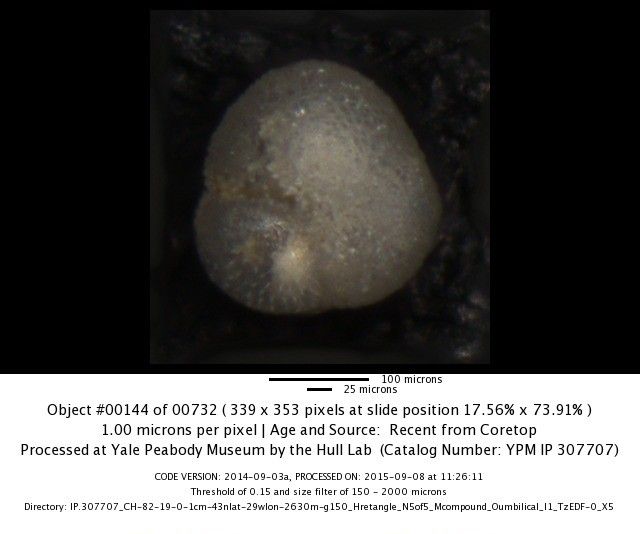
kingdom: Chromista
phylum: Foraminifera
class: Globothalamea
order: Rotaliida
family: Globorotaliidae
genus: Globoconella
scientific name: Globoconella inflata
